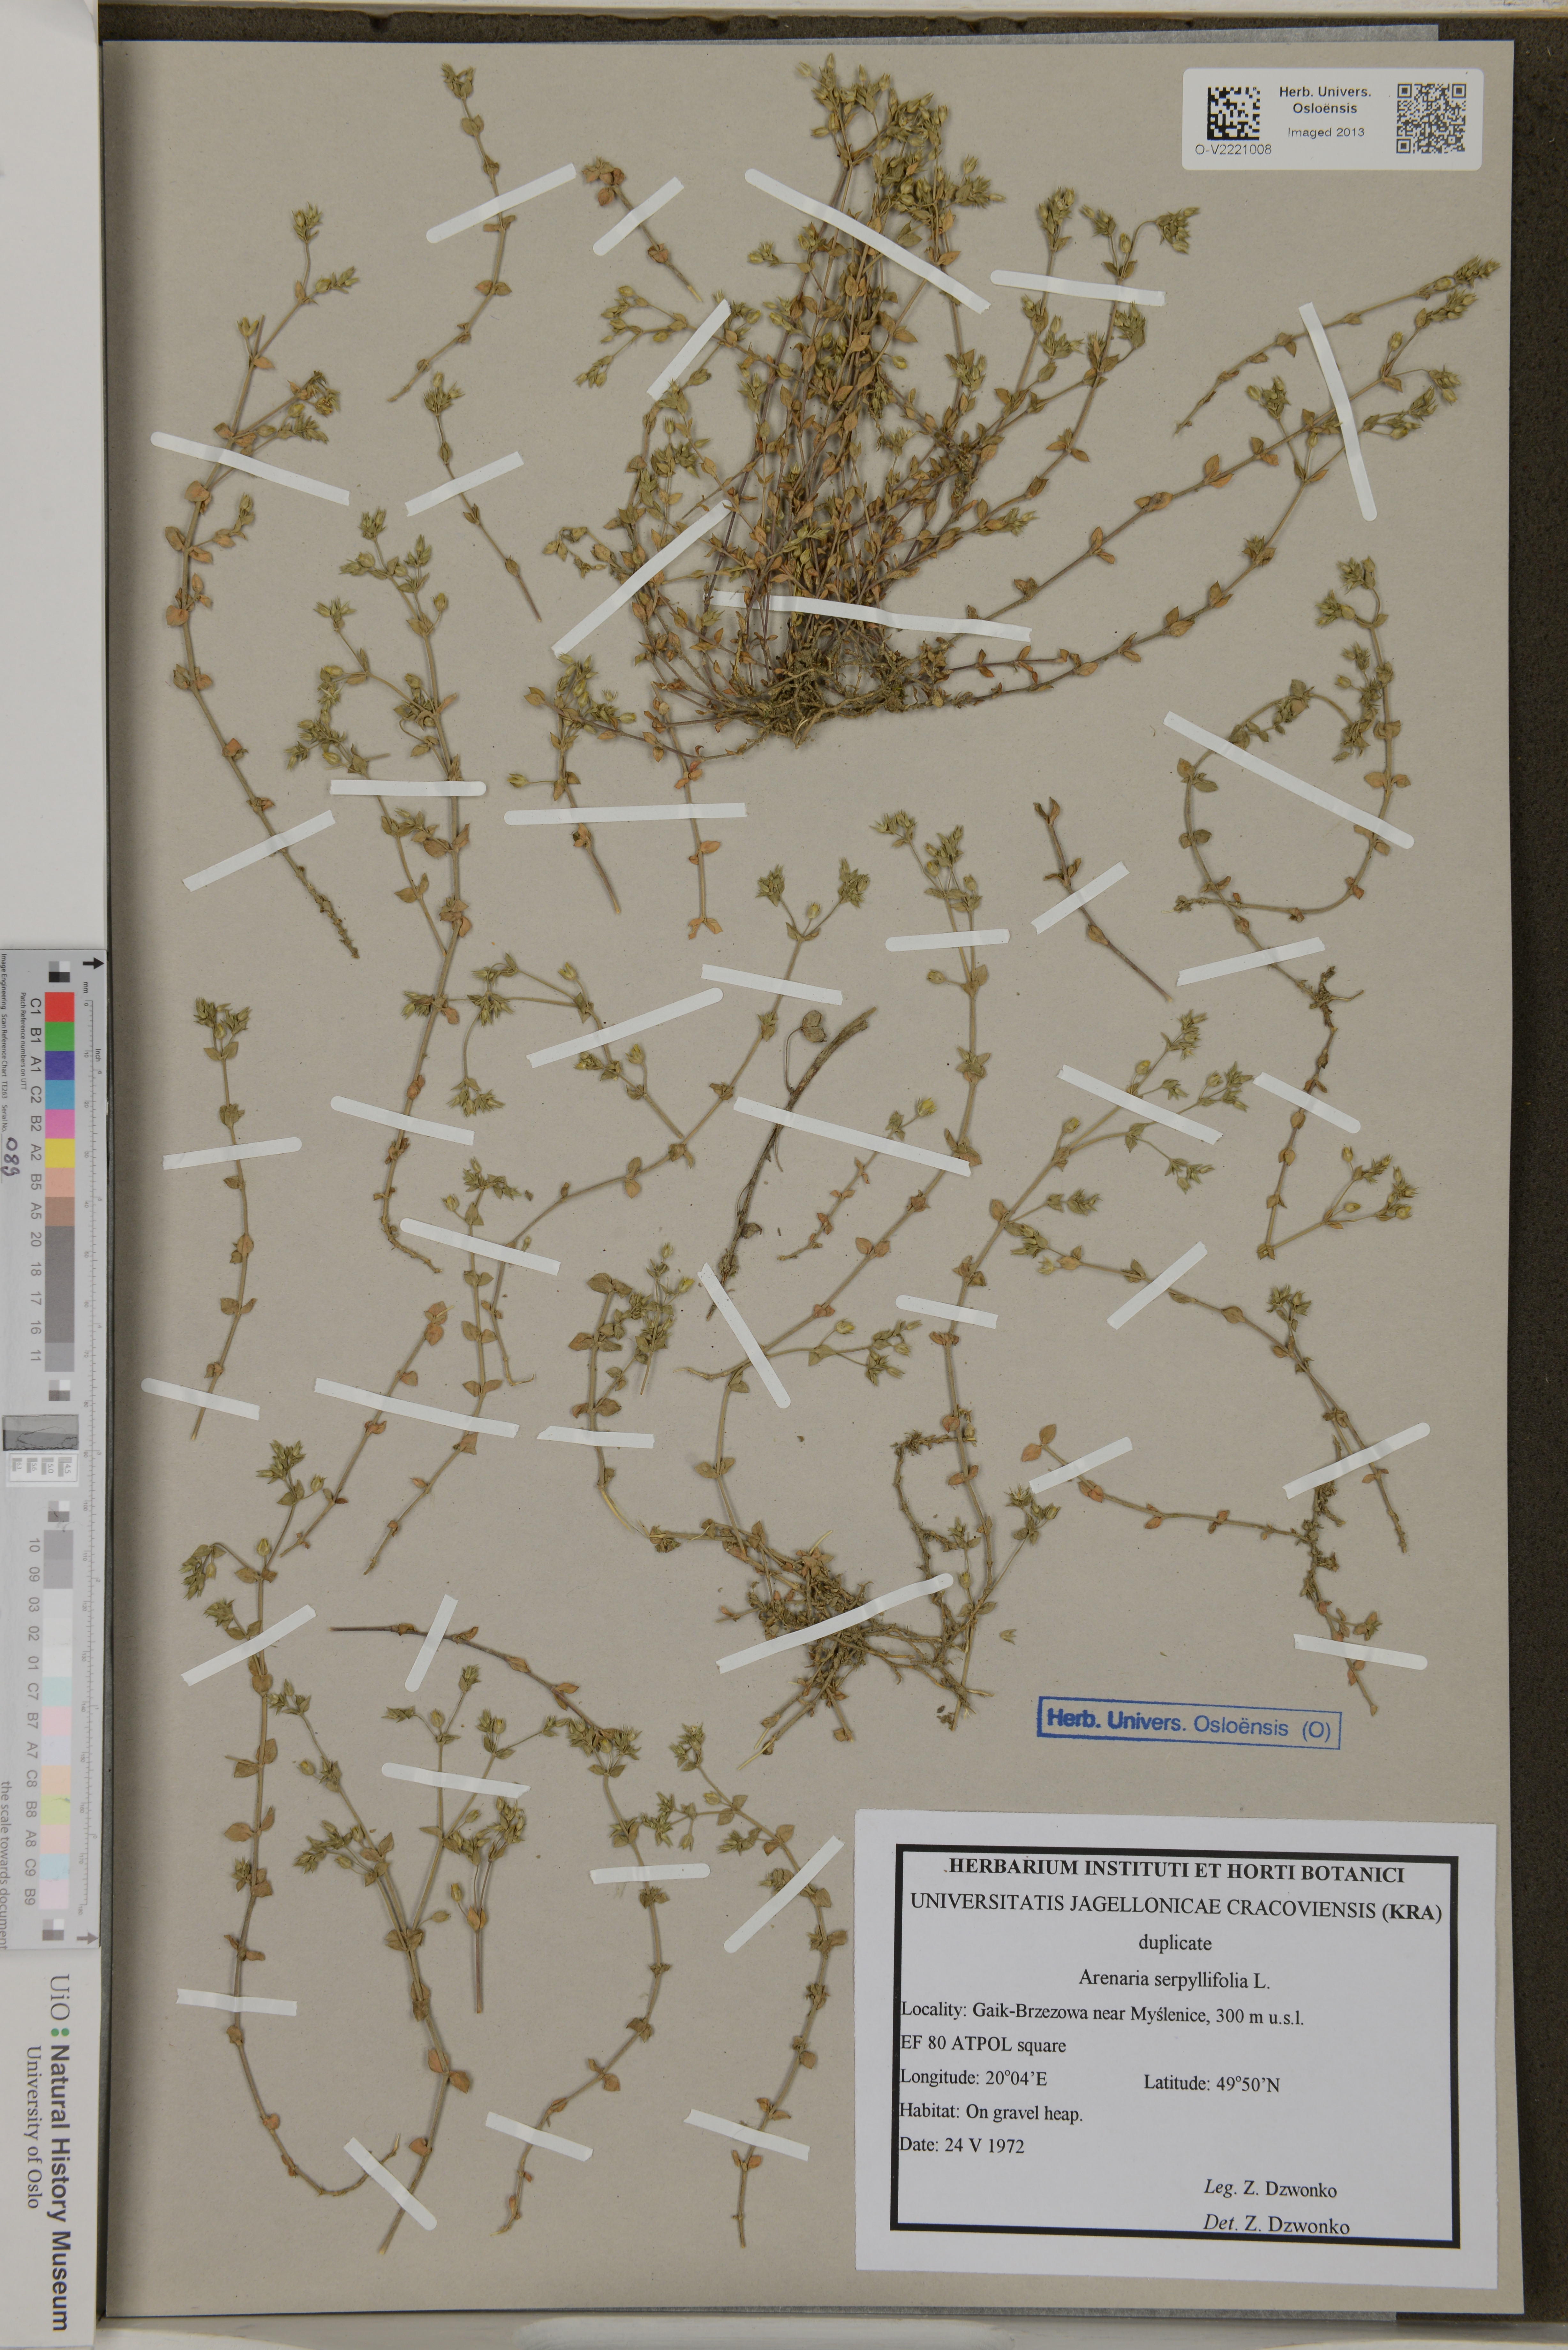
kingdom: Plantae
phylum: Tracheophyta
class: Magnoliopsida
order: Caryophyllales
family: Caryophyllaceae
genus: Arenaria
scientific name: Arenaria serpyllifolia
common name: Thyme-leaved sandwort
